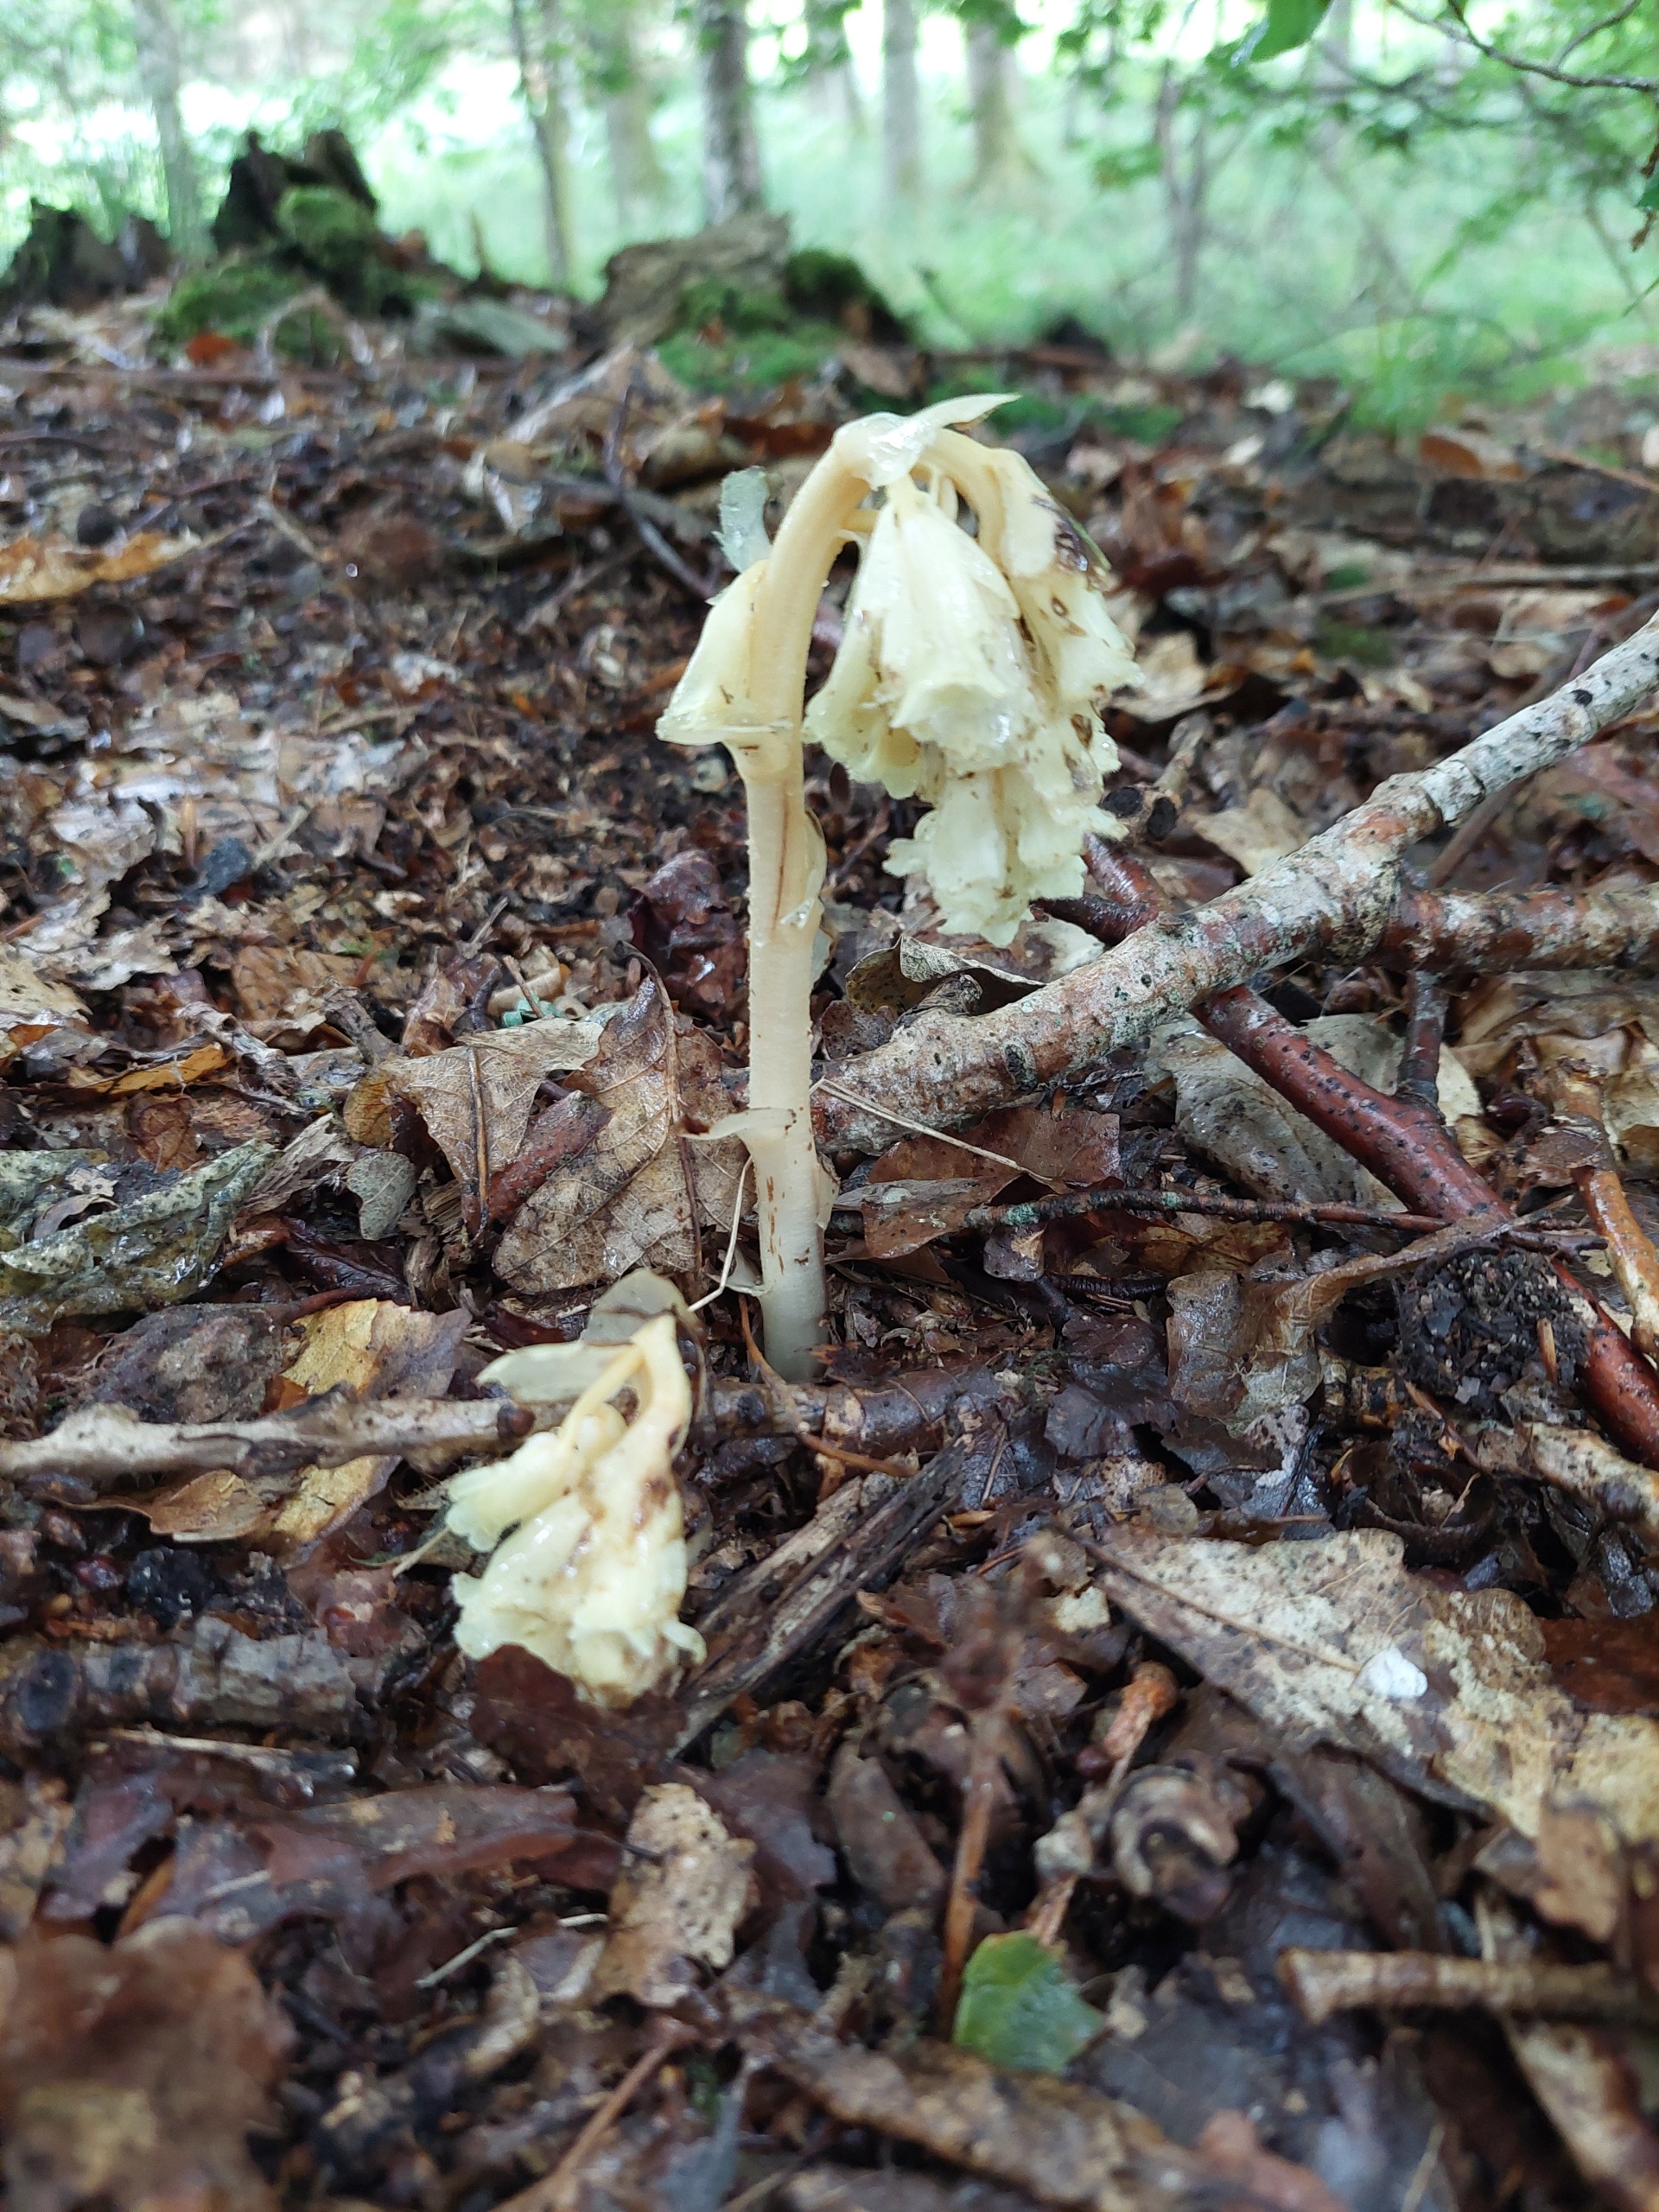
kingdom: Plantae
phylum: Tracheophyta
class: Magnoliopsida
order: Ericales
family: Ericaceae
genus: Hypopitys
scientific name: Hypopitys monotropa
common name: Snylterod
